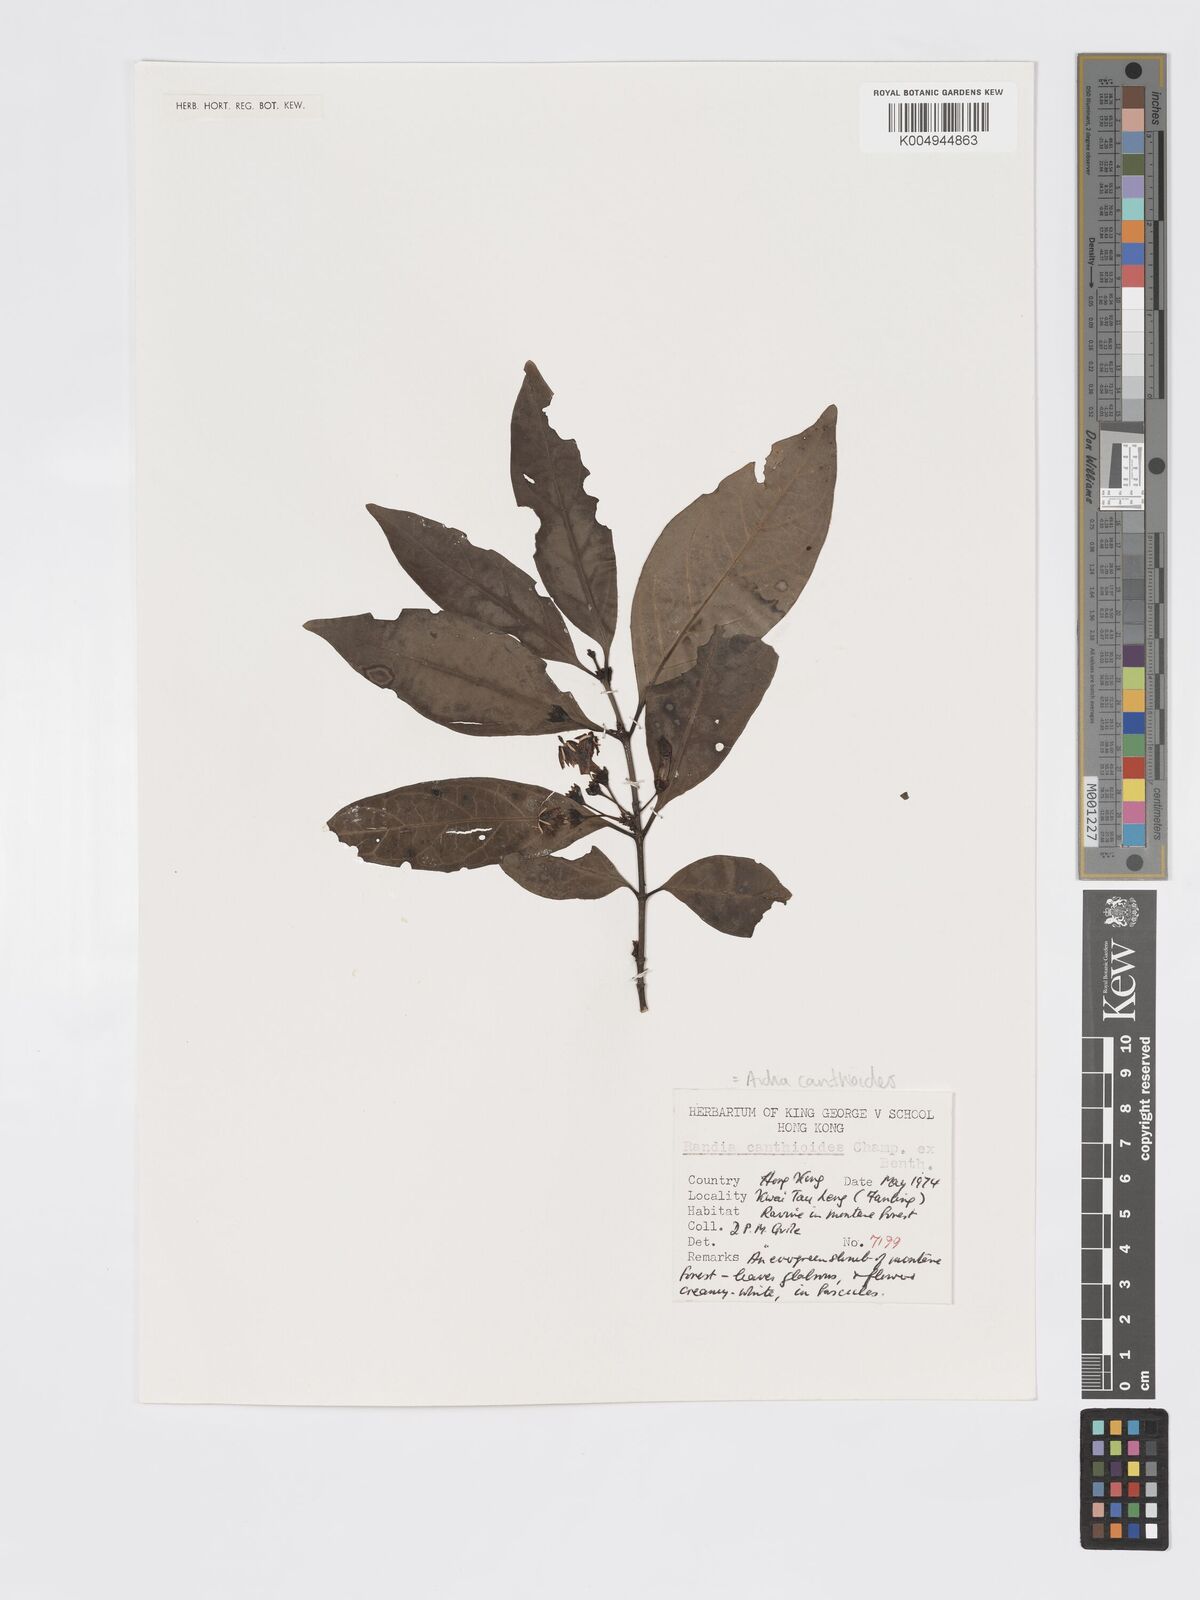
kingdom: Plantae
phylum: Tracheophyta
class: Magnoliopsida
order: Gentianales
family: Rubiaceae
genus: Aidia
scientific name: Aidia canthioides
